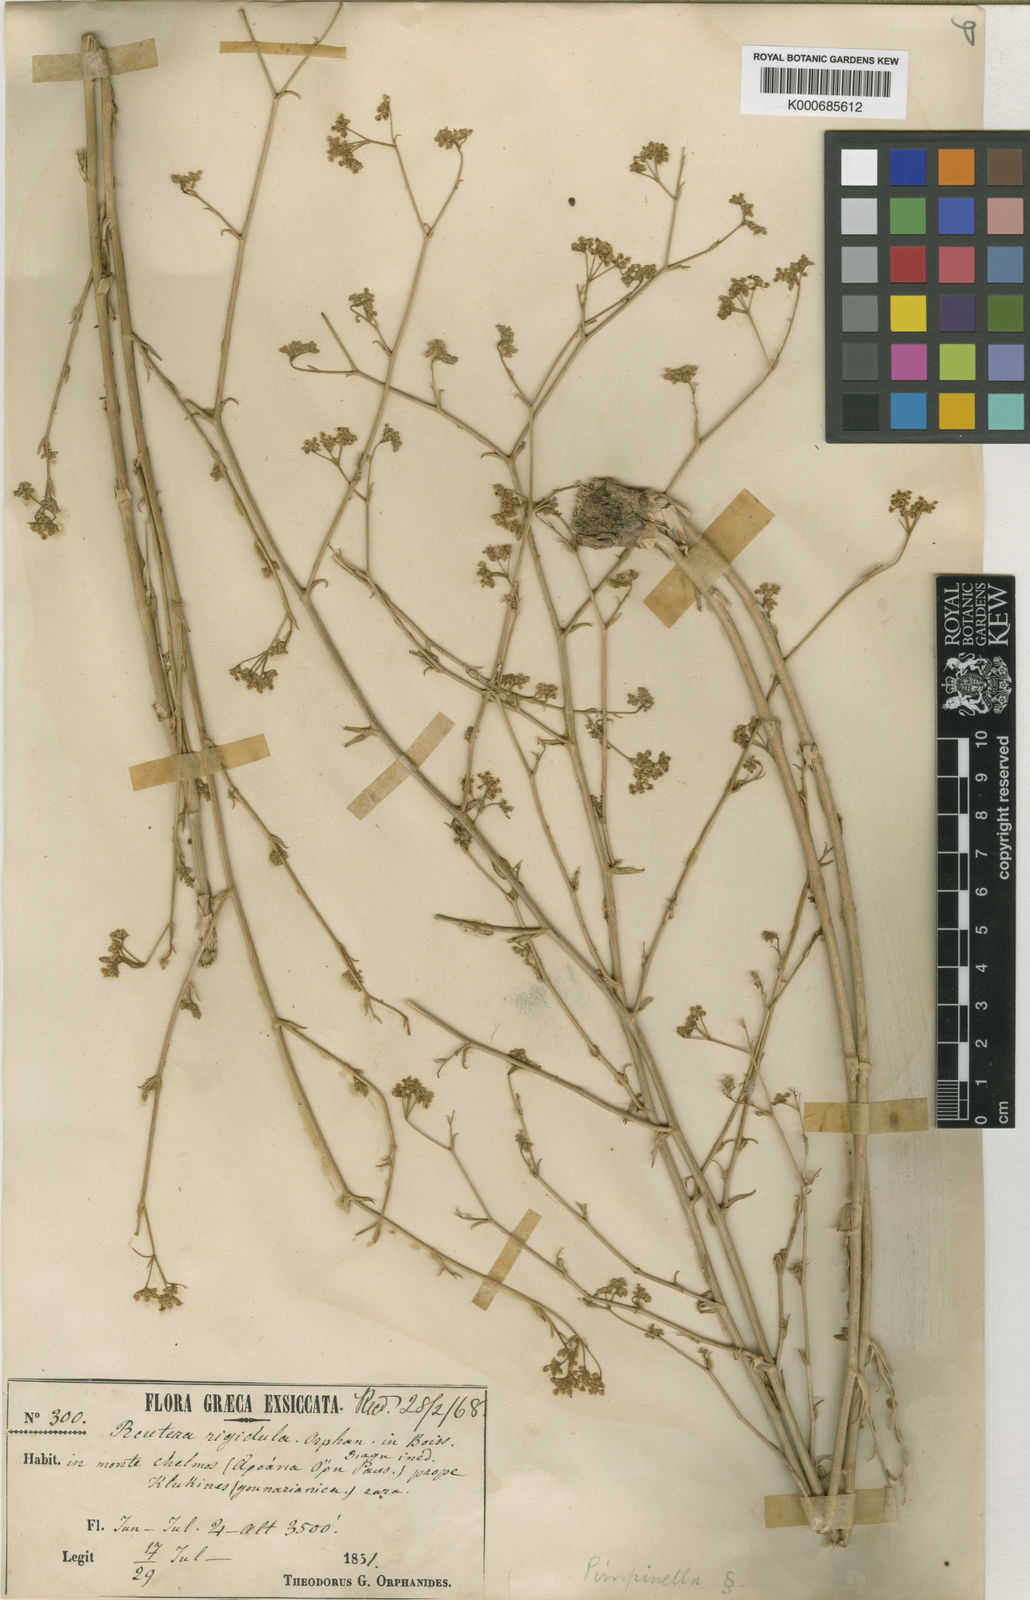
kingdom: Plantae
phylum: Tracheophyta
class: Magnoliopsida
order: Apiales
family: Apiaceae
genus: Pimpinella
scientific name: Pimpinella rigidula
